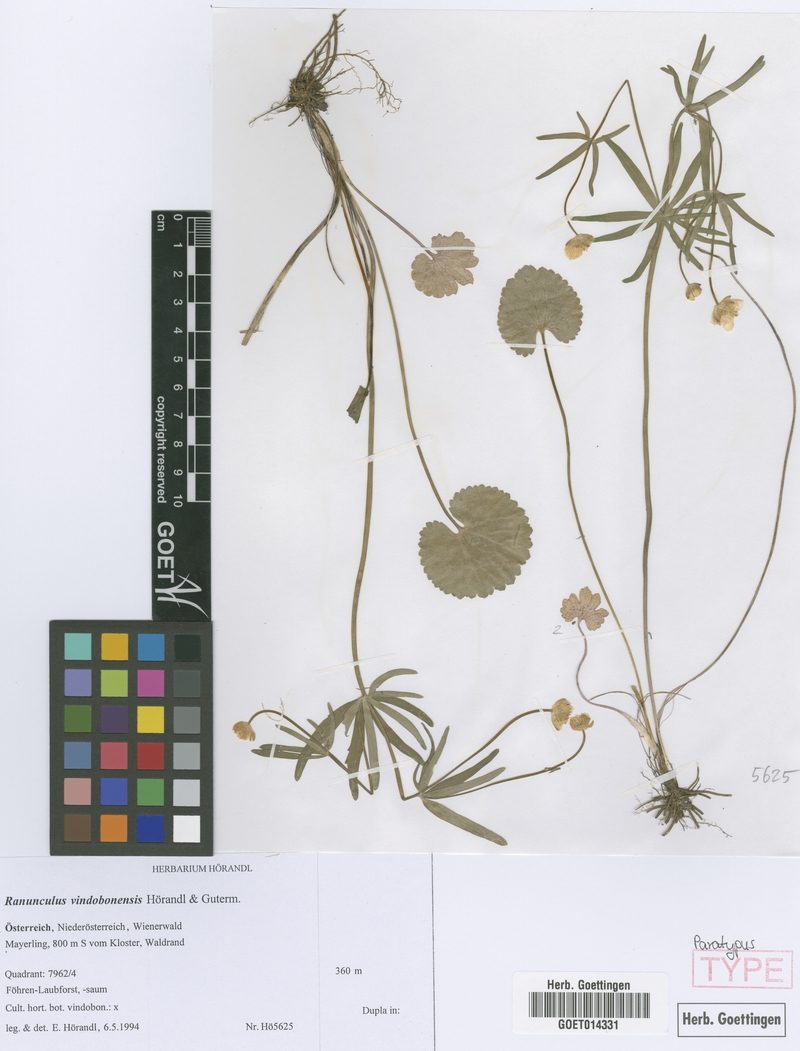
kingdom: Plantae
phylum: Tracheophyta
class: Magnoliopsida
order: Ranunculales
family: Ranunculaceae
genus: Ranunculus
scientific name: Ranunculus vindobonensis
